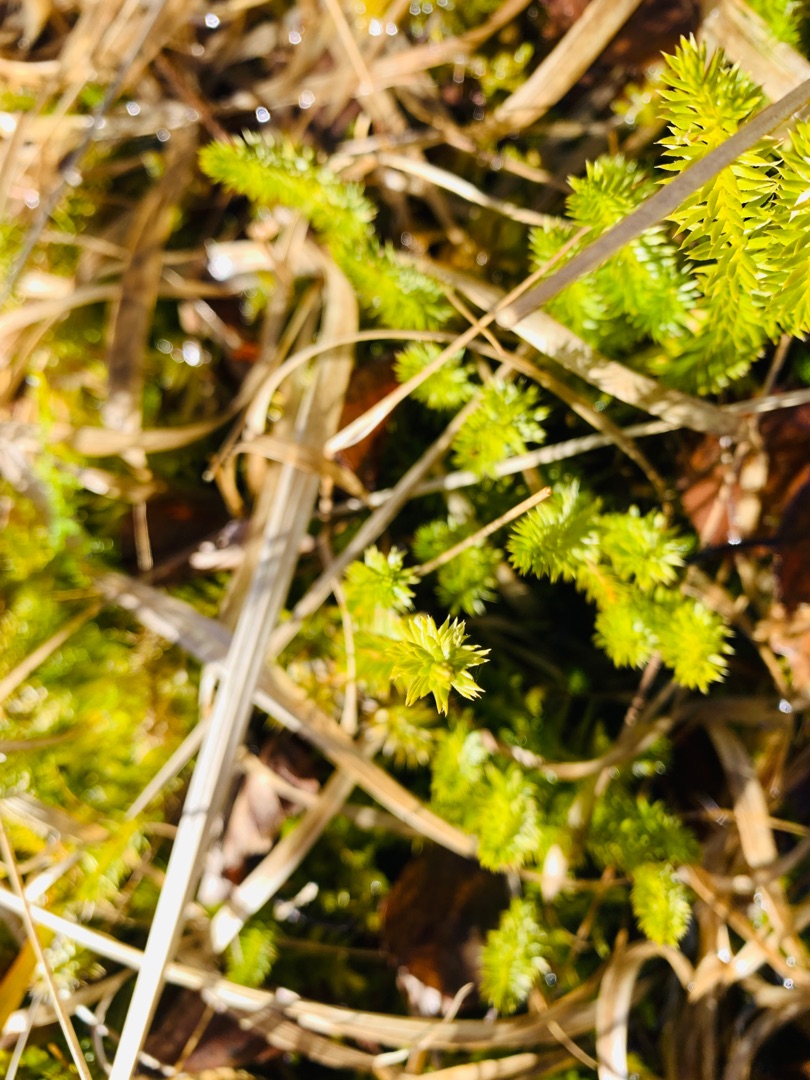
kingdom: Plantae
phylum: Tracheophyta
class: Lycopodiopsida
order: Lycopodiales
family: Lycopodiaceae
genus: Spinulum
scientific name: Spinulum annotinum
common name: Femradet ulvefod
